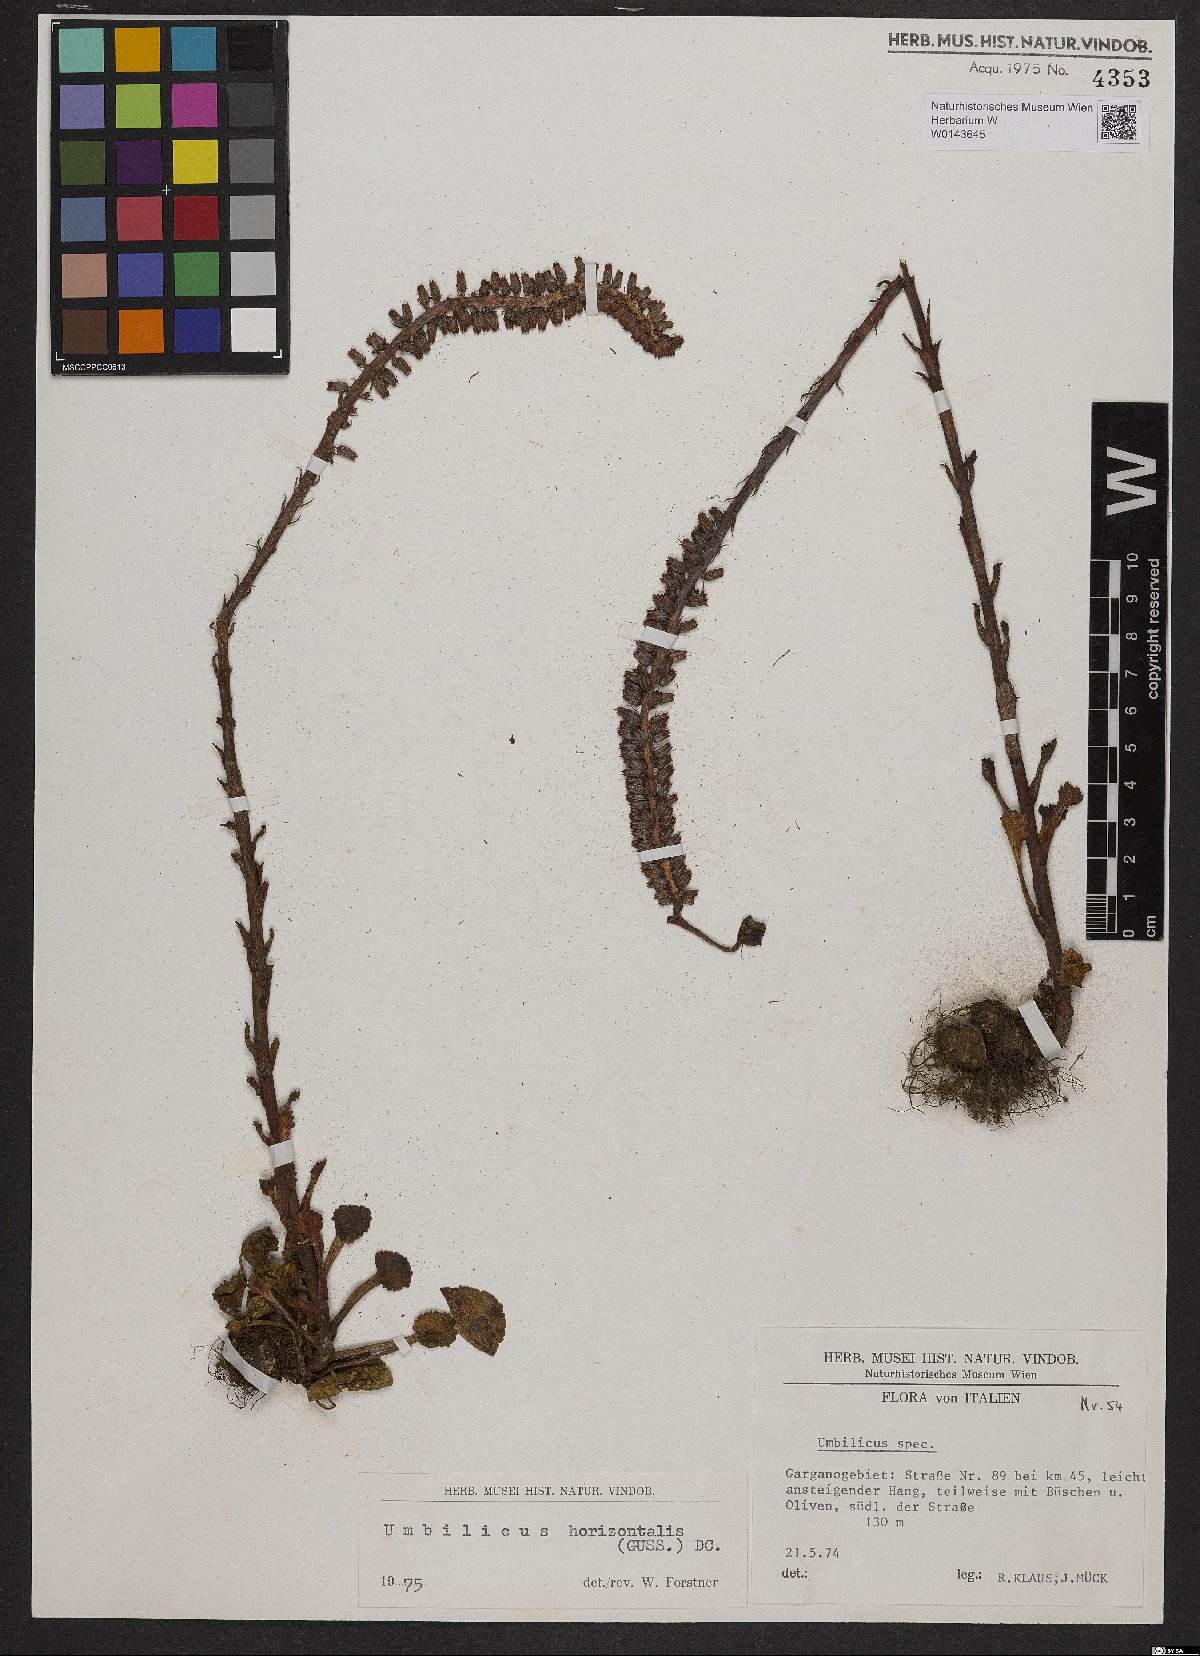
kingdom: Plantae
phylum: Tracheophyta
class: Magnoliopsida
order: Saxifragales
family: Crassulaceae
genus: Umbilicus
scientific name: Umbilicus horizontalis
